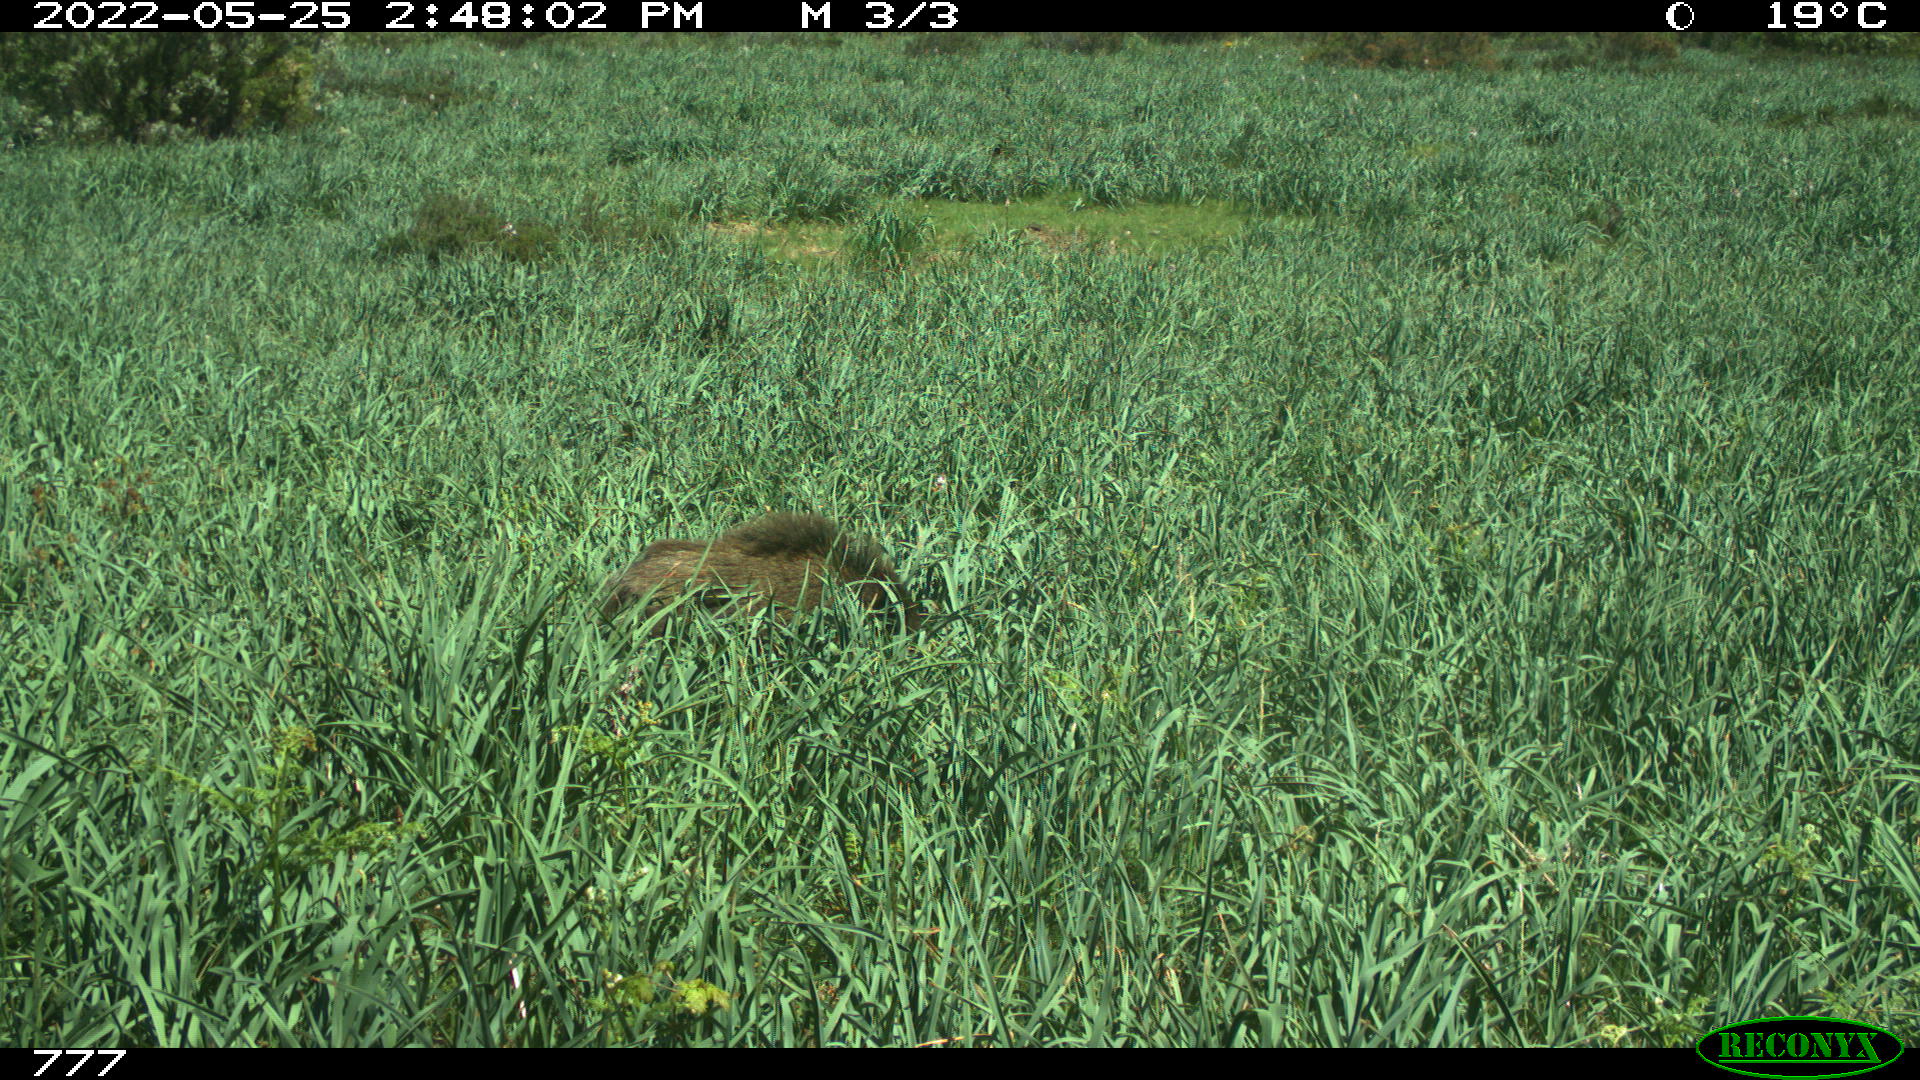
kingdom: Animalia
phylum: Chordata
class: Mammalia
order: Artiodactyla
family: Suidae
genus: Sus
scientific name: Sus scrofa
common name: Wild boar
